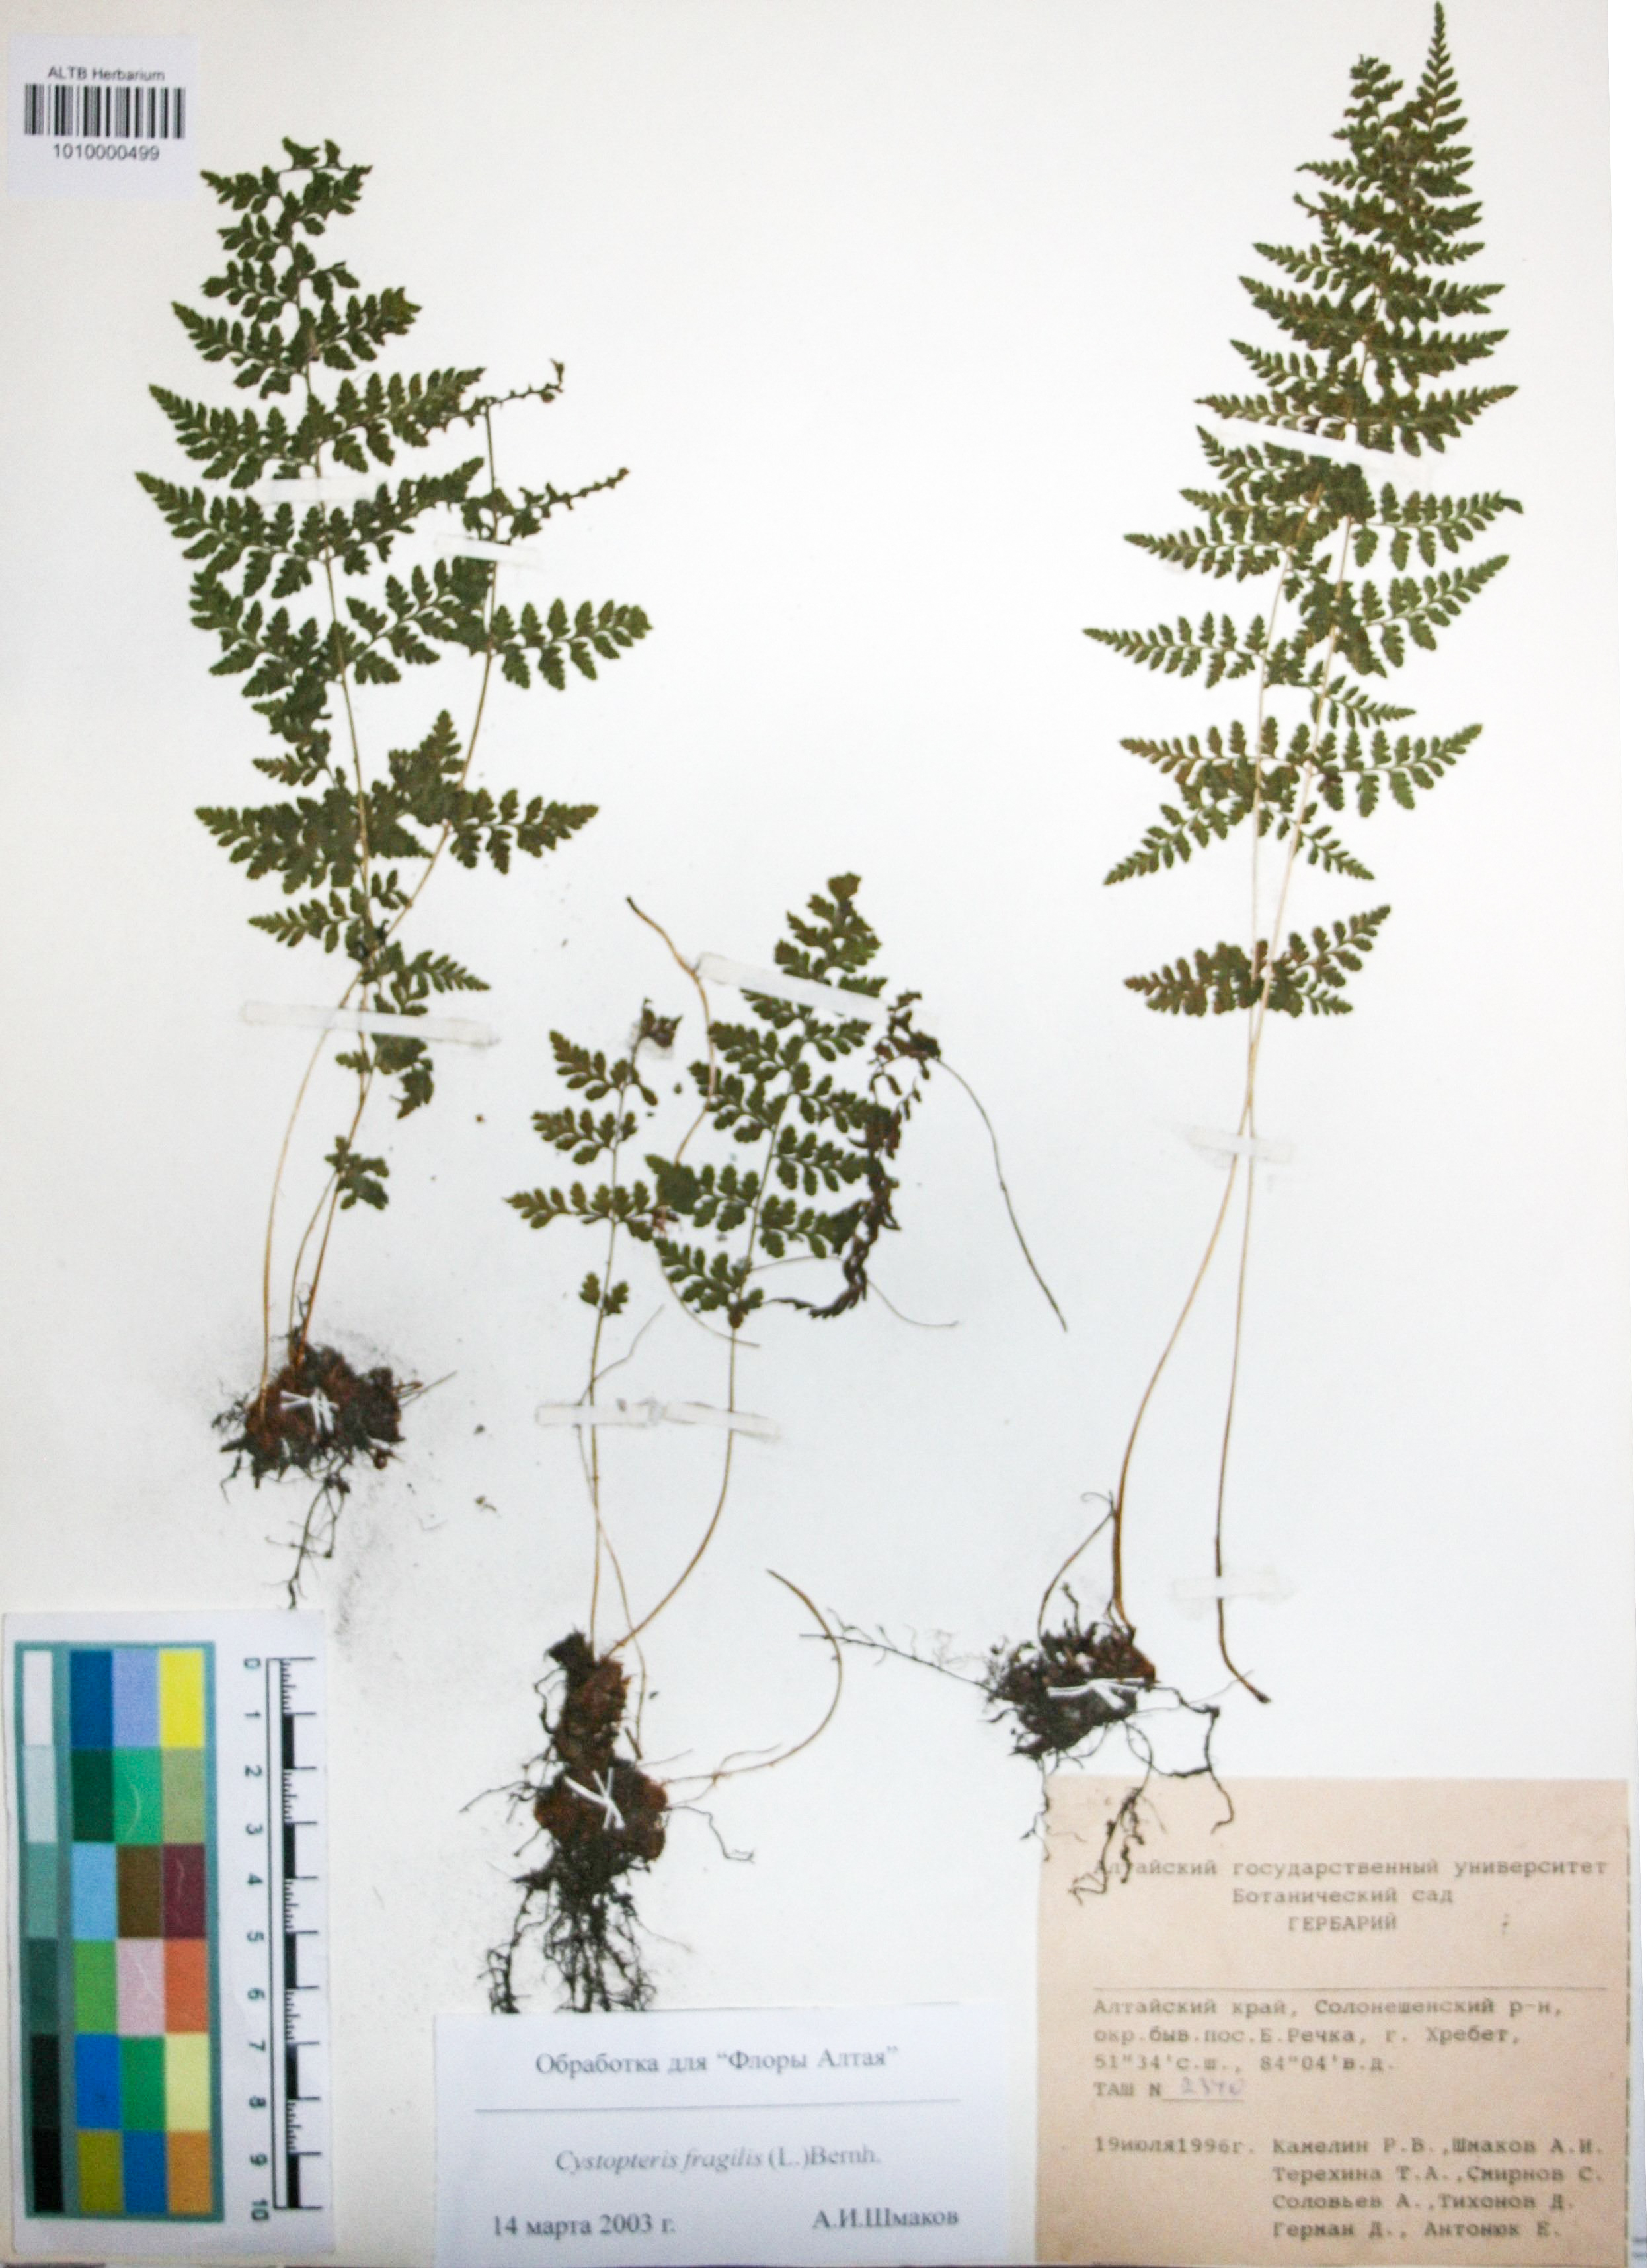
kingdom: Plantae
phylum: Tracheophyta
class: Polypodiopsida
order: Polypodiales
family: Cystopteridaceae
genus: Cystopteris
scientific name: Cystopteris fragilis
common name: Brittle bladder fern
